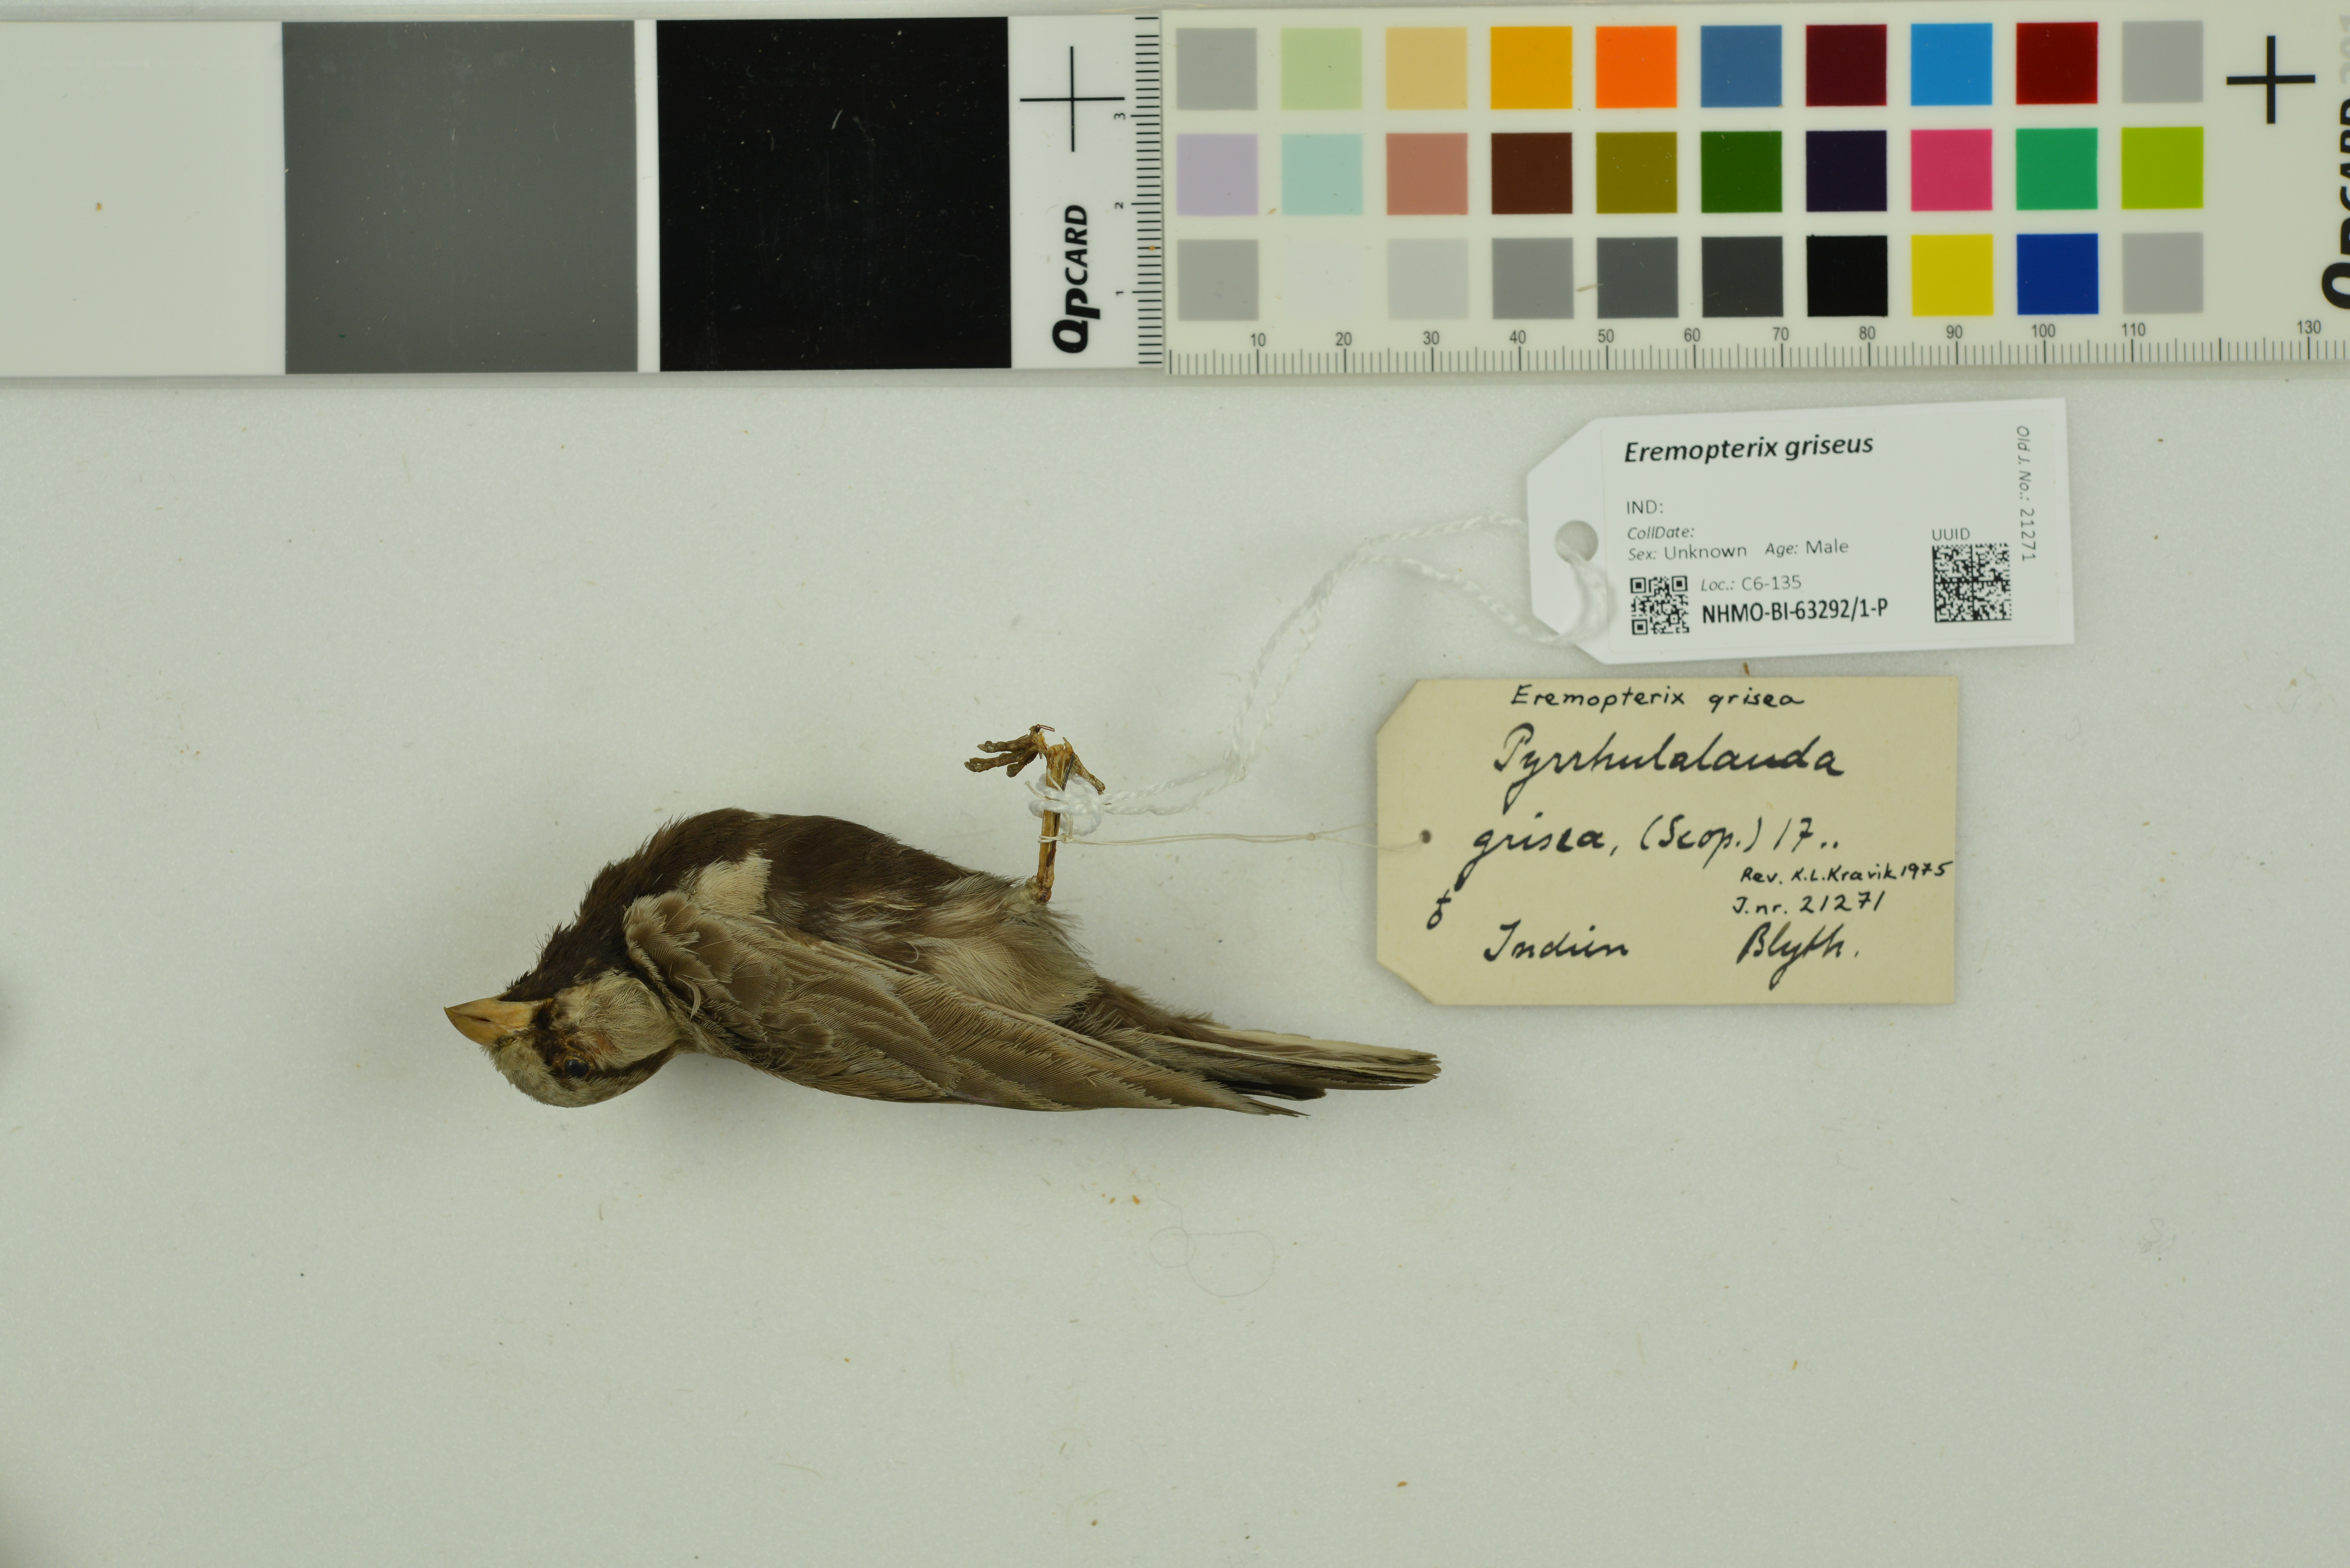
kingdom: Animalia
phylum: Chordata
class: Aves
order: Passeriformes
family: Alaudidae
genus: Eremopterix
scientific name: Eremopterix griseus
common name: Ashy-crowned sparrow-lark
